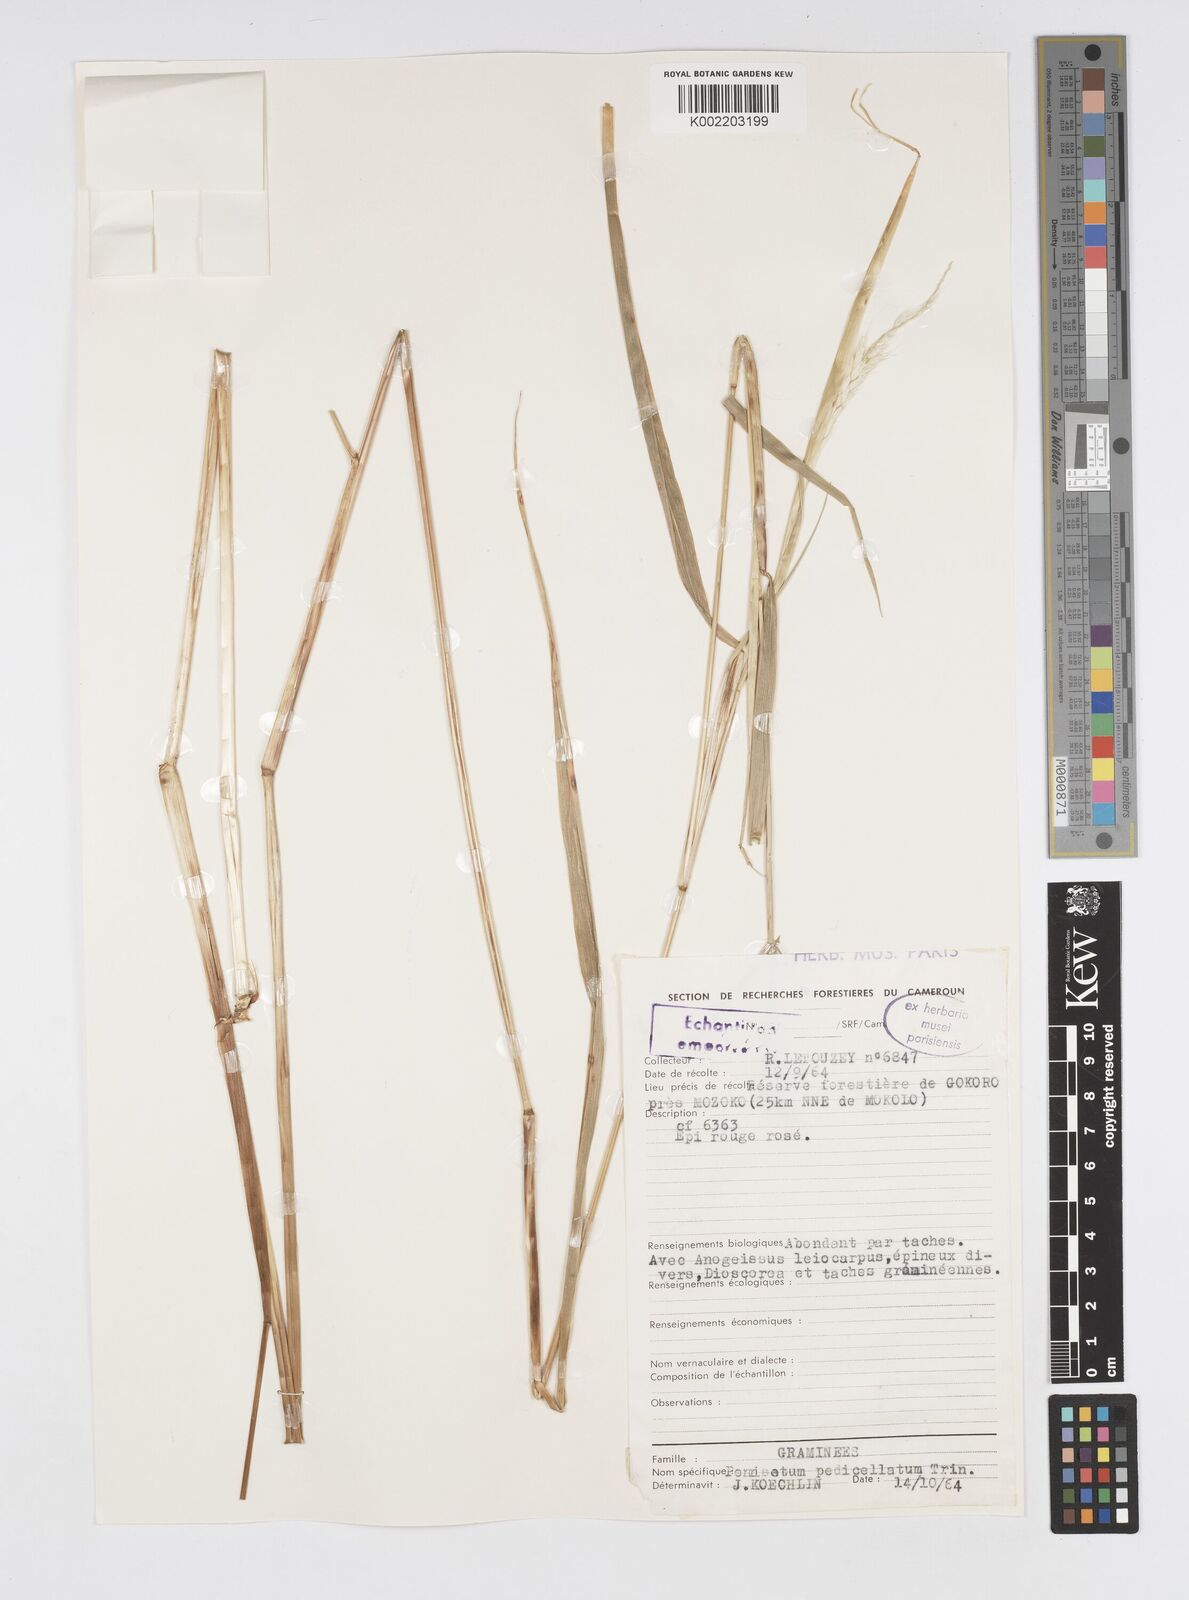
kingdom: Plantae
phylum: Tracheophyta
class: Liliopsida
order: Poales
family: Poaceae
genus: Cenchrus
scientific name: Cenchrus pedicellatus
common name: Hairy fountain grass
